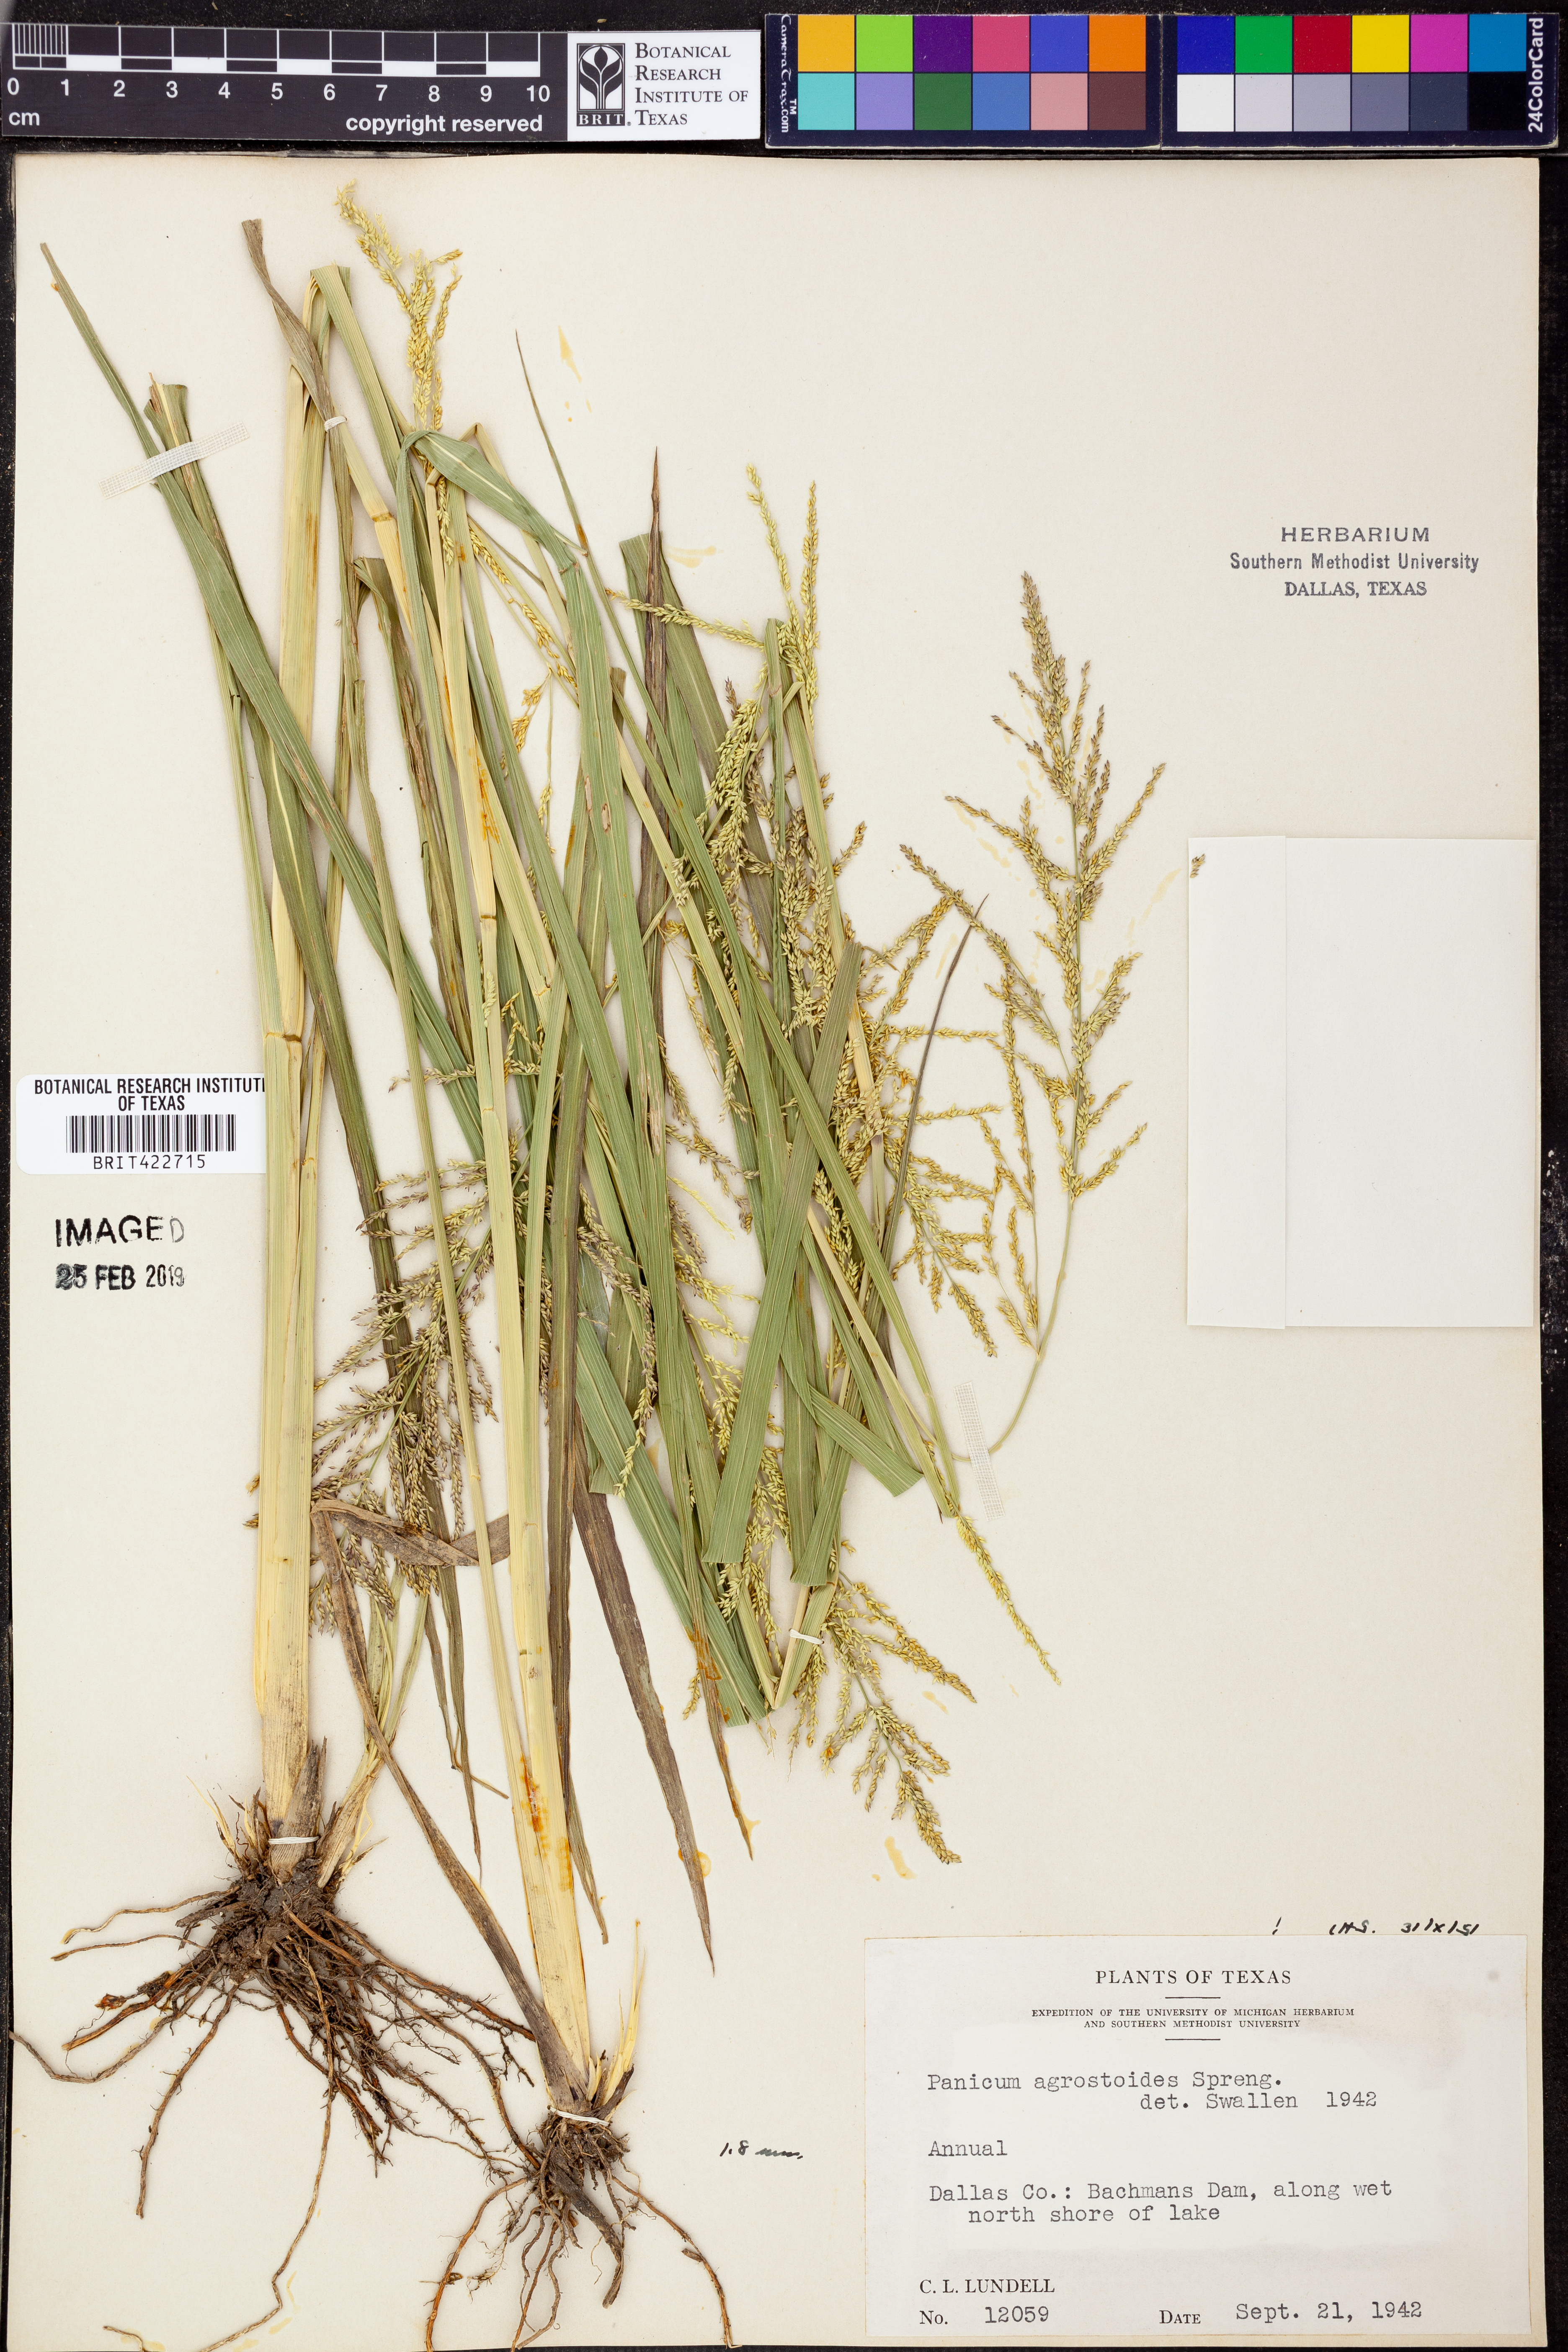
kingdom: Plantae
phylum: Tracheophyta
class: Liliopsida
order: Poales
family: Poaceae
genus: Steinchisma
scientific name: Steinchisma laxum
